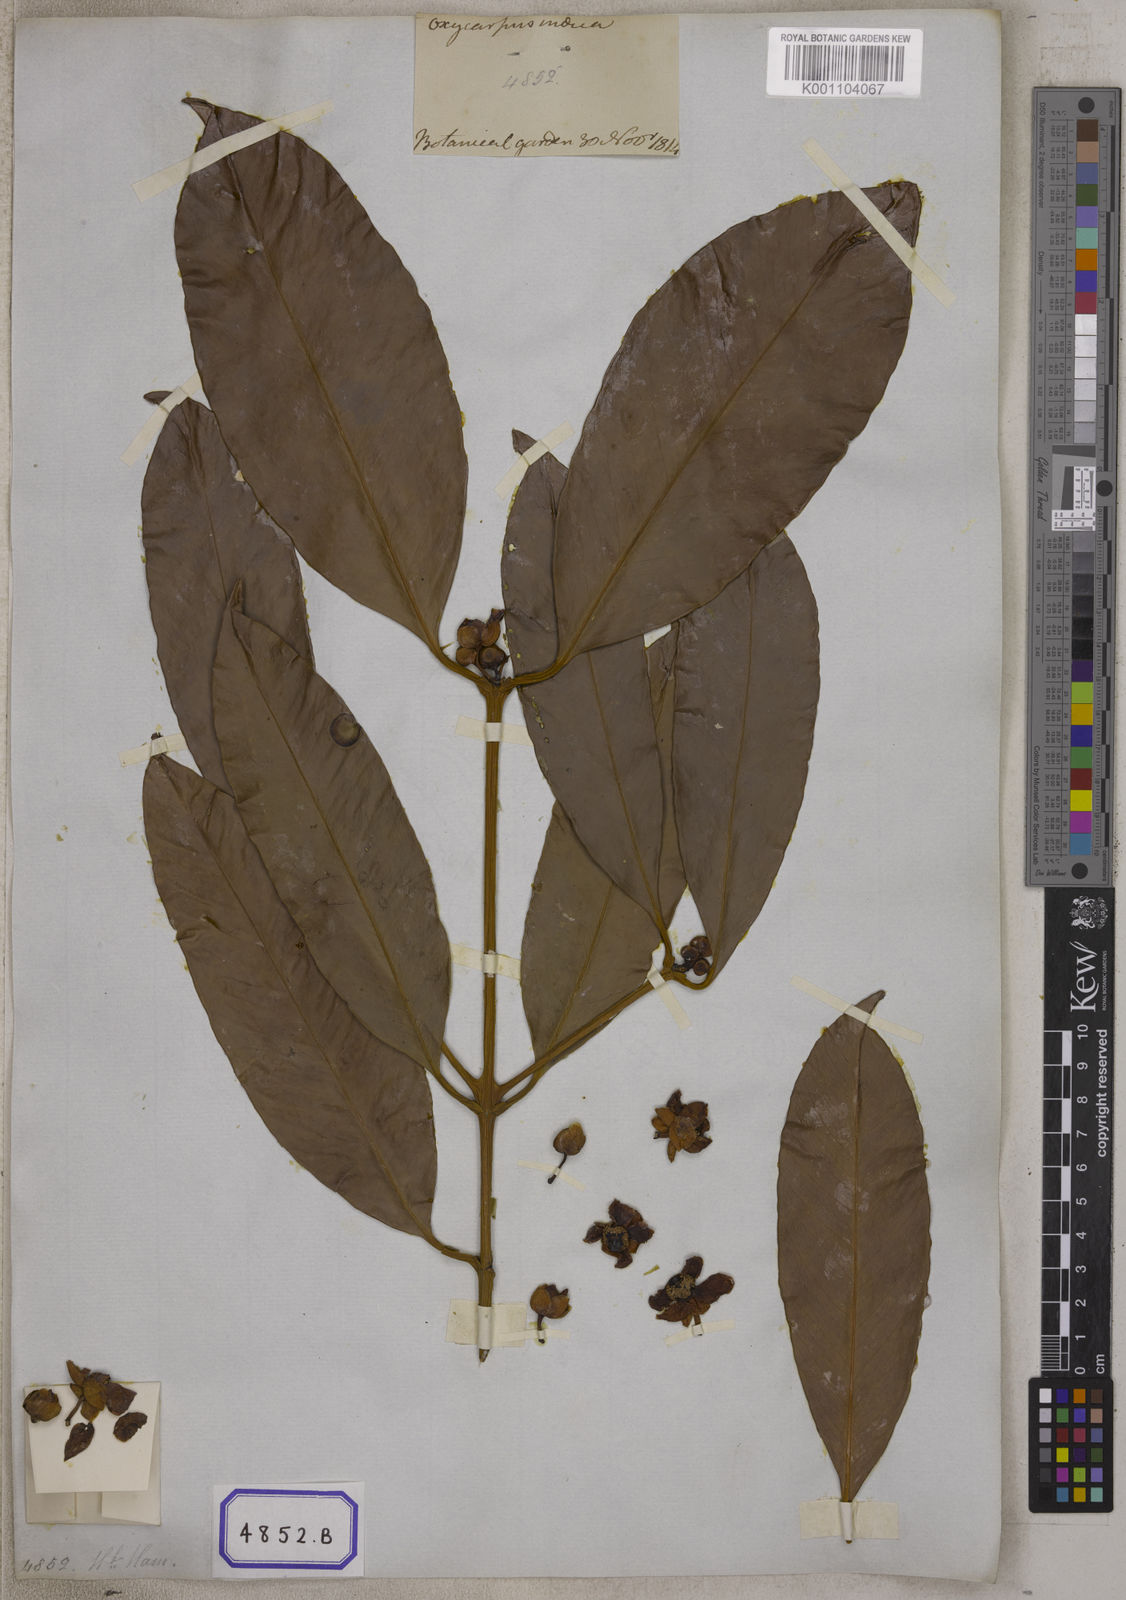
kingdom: Plantae
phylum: Tracheophyta
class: Magnoliopsida
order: Malpighiales
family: Clusiaceae
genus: Garcinia
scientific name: Garcinia celebica
